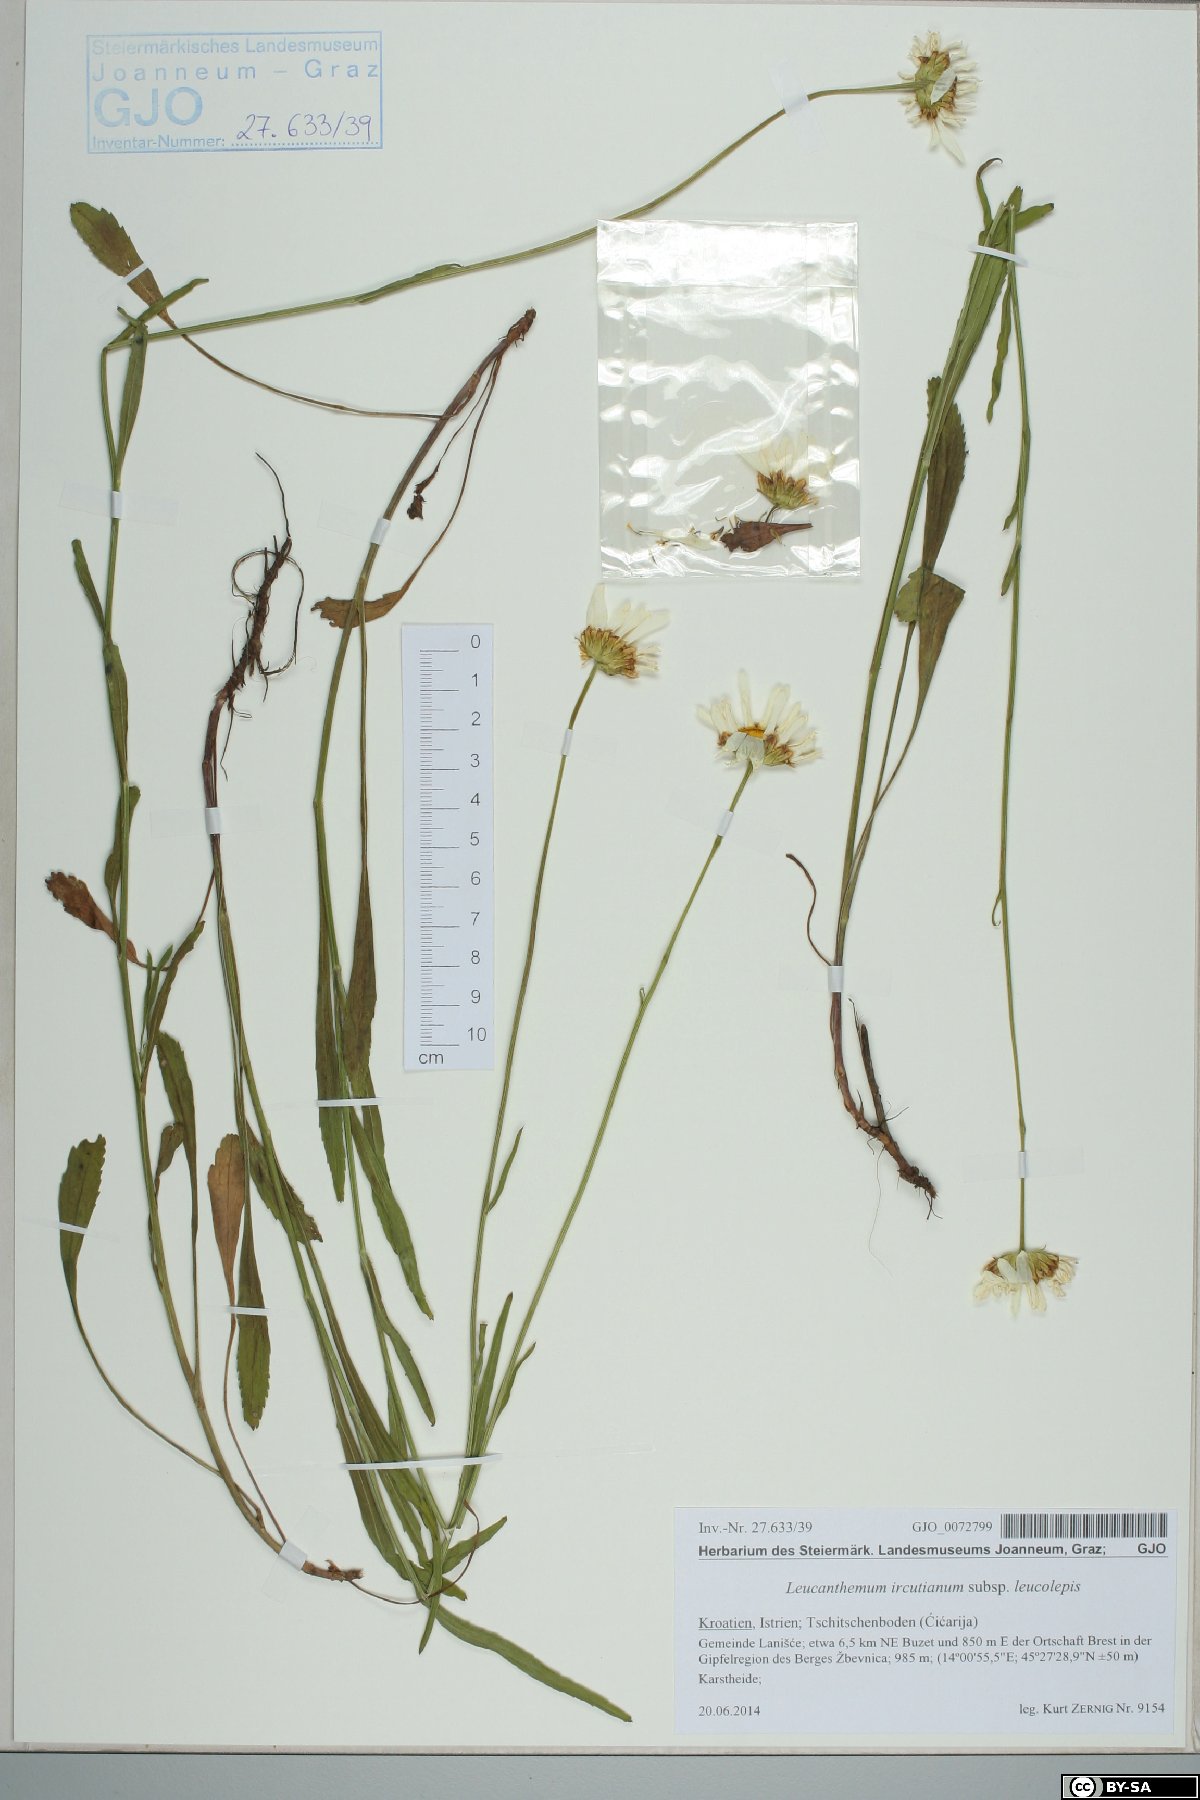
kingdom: Plantae
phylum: Tracheophyta
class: Magnoliopsida
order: Asterales
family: Asteraceae
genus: Leucanthemum
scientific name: Leucanthemum platylepis
